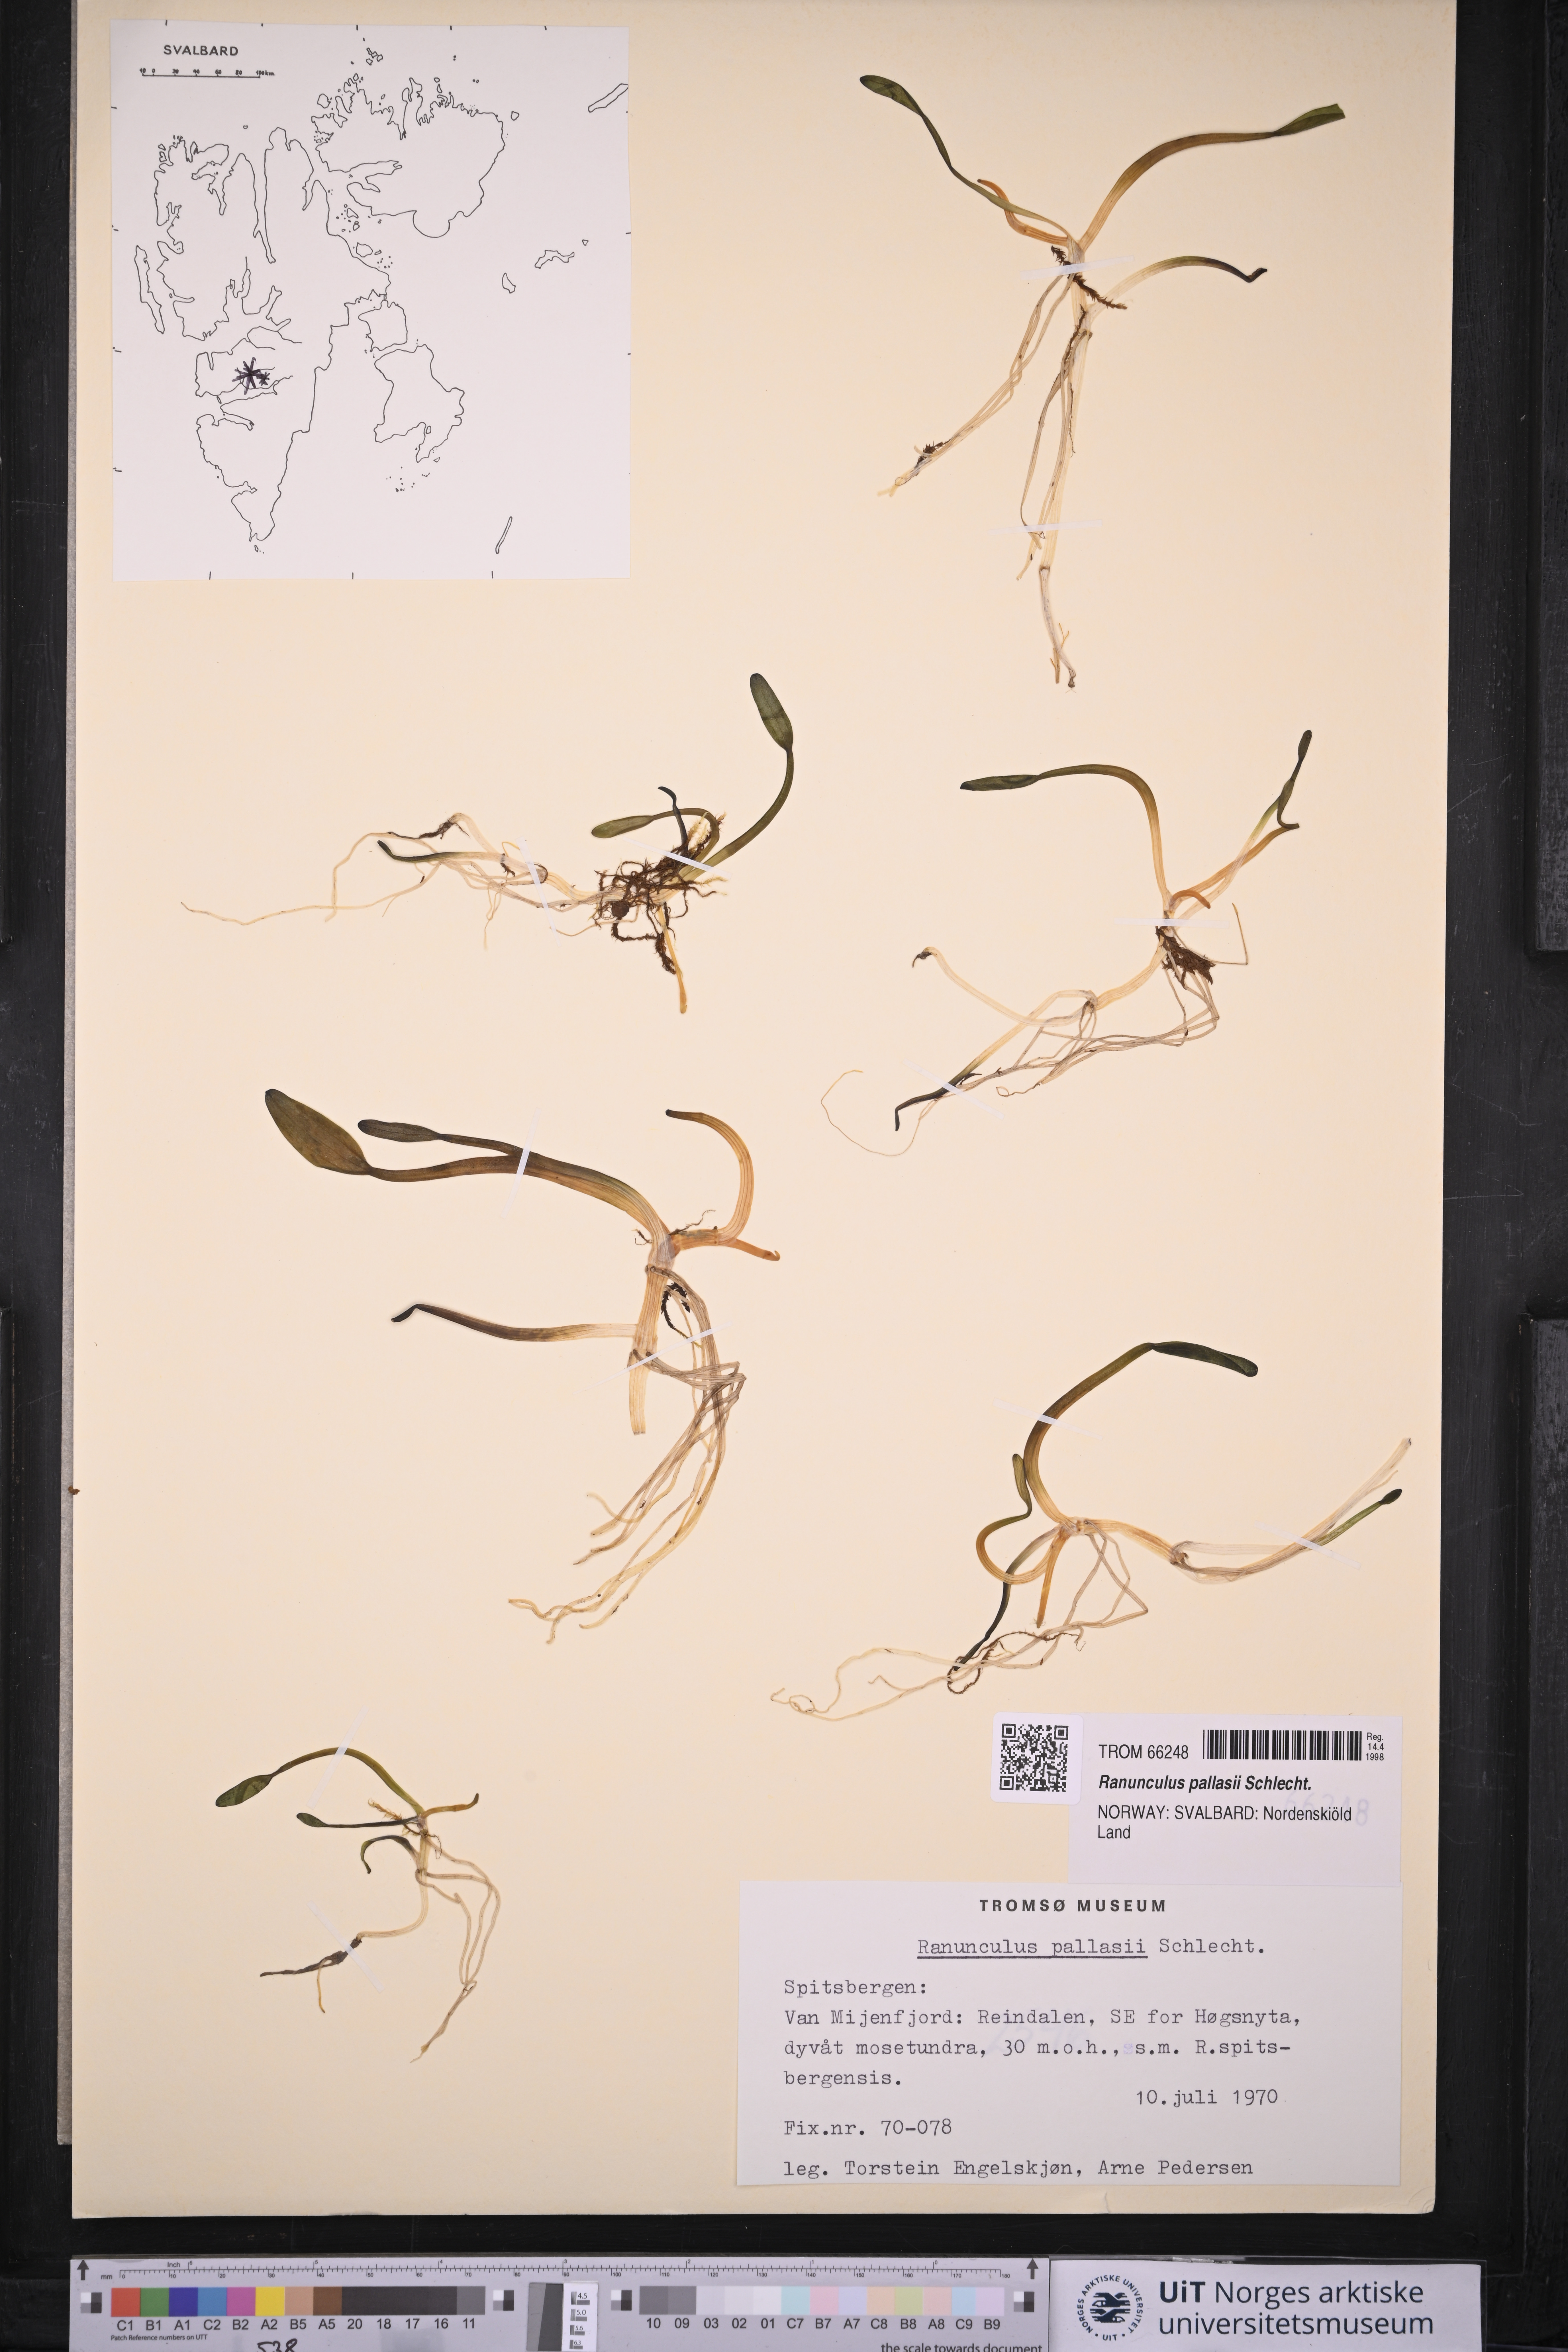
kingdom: Plantae
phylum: Tracheophyta
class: Magnoliopsida
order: Ranunculales
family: Ranunculaceae
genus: Coptidium
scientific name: Coptidium pallasii
